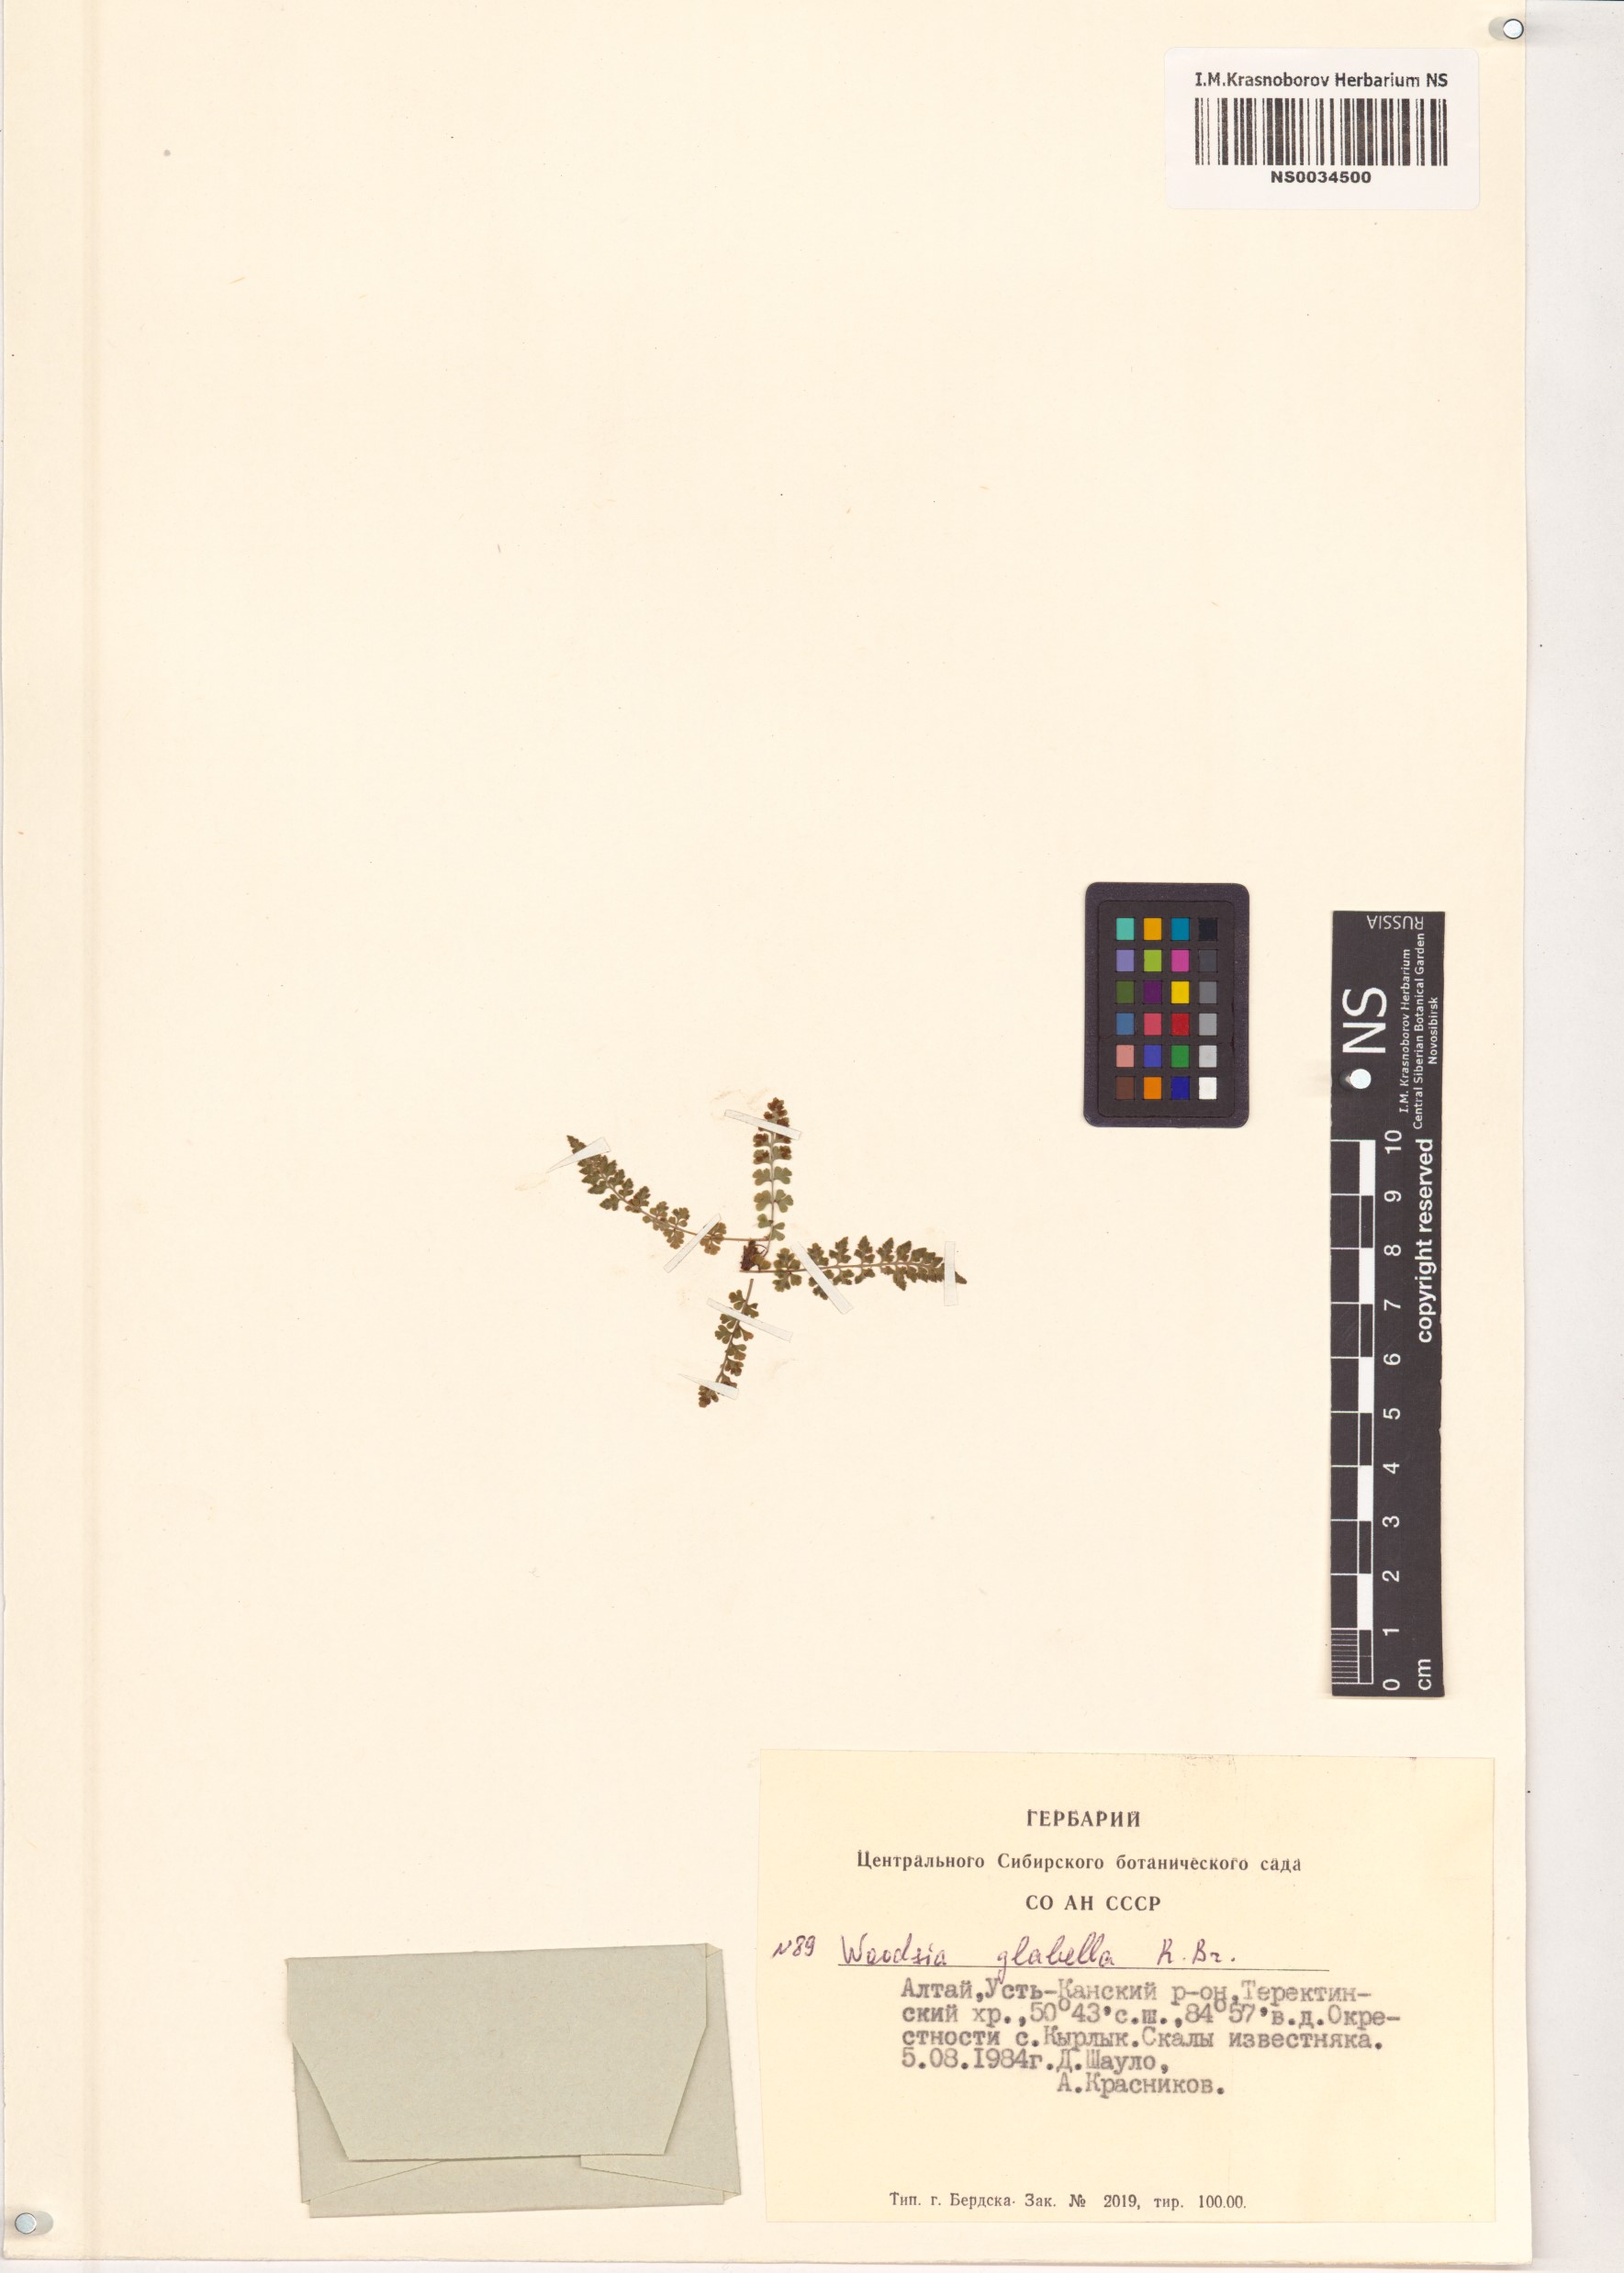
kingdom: Plantae
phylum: Tracheophyta
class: Polypodiopsida
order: Polypodiales
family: Woodsiaceae
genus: Woodsia
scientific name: Woodsia glabella
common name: Smooth woodsia
